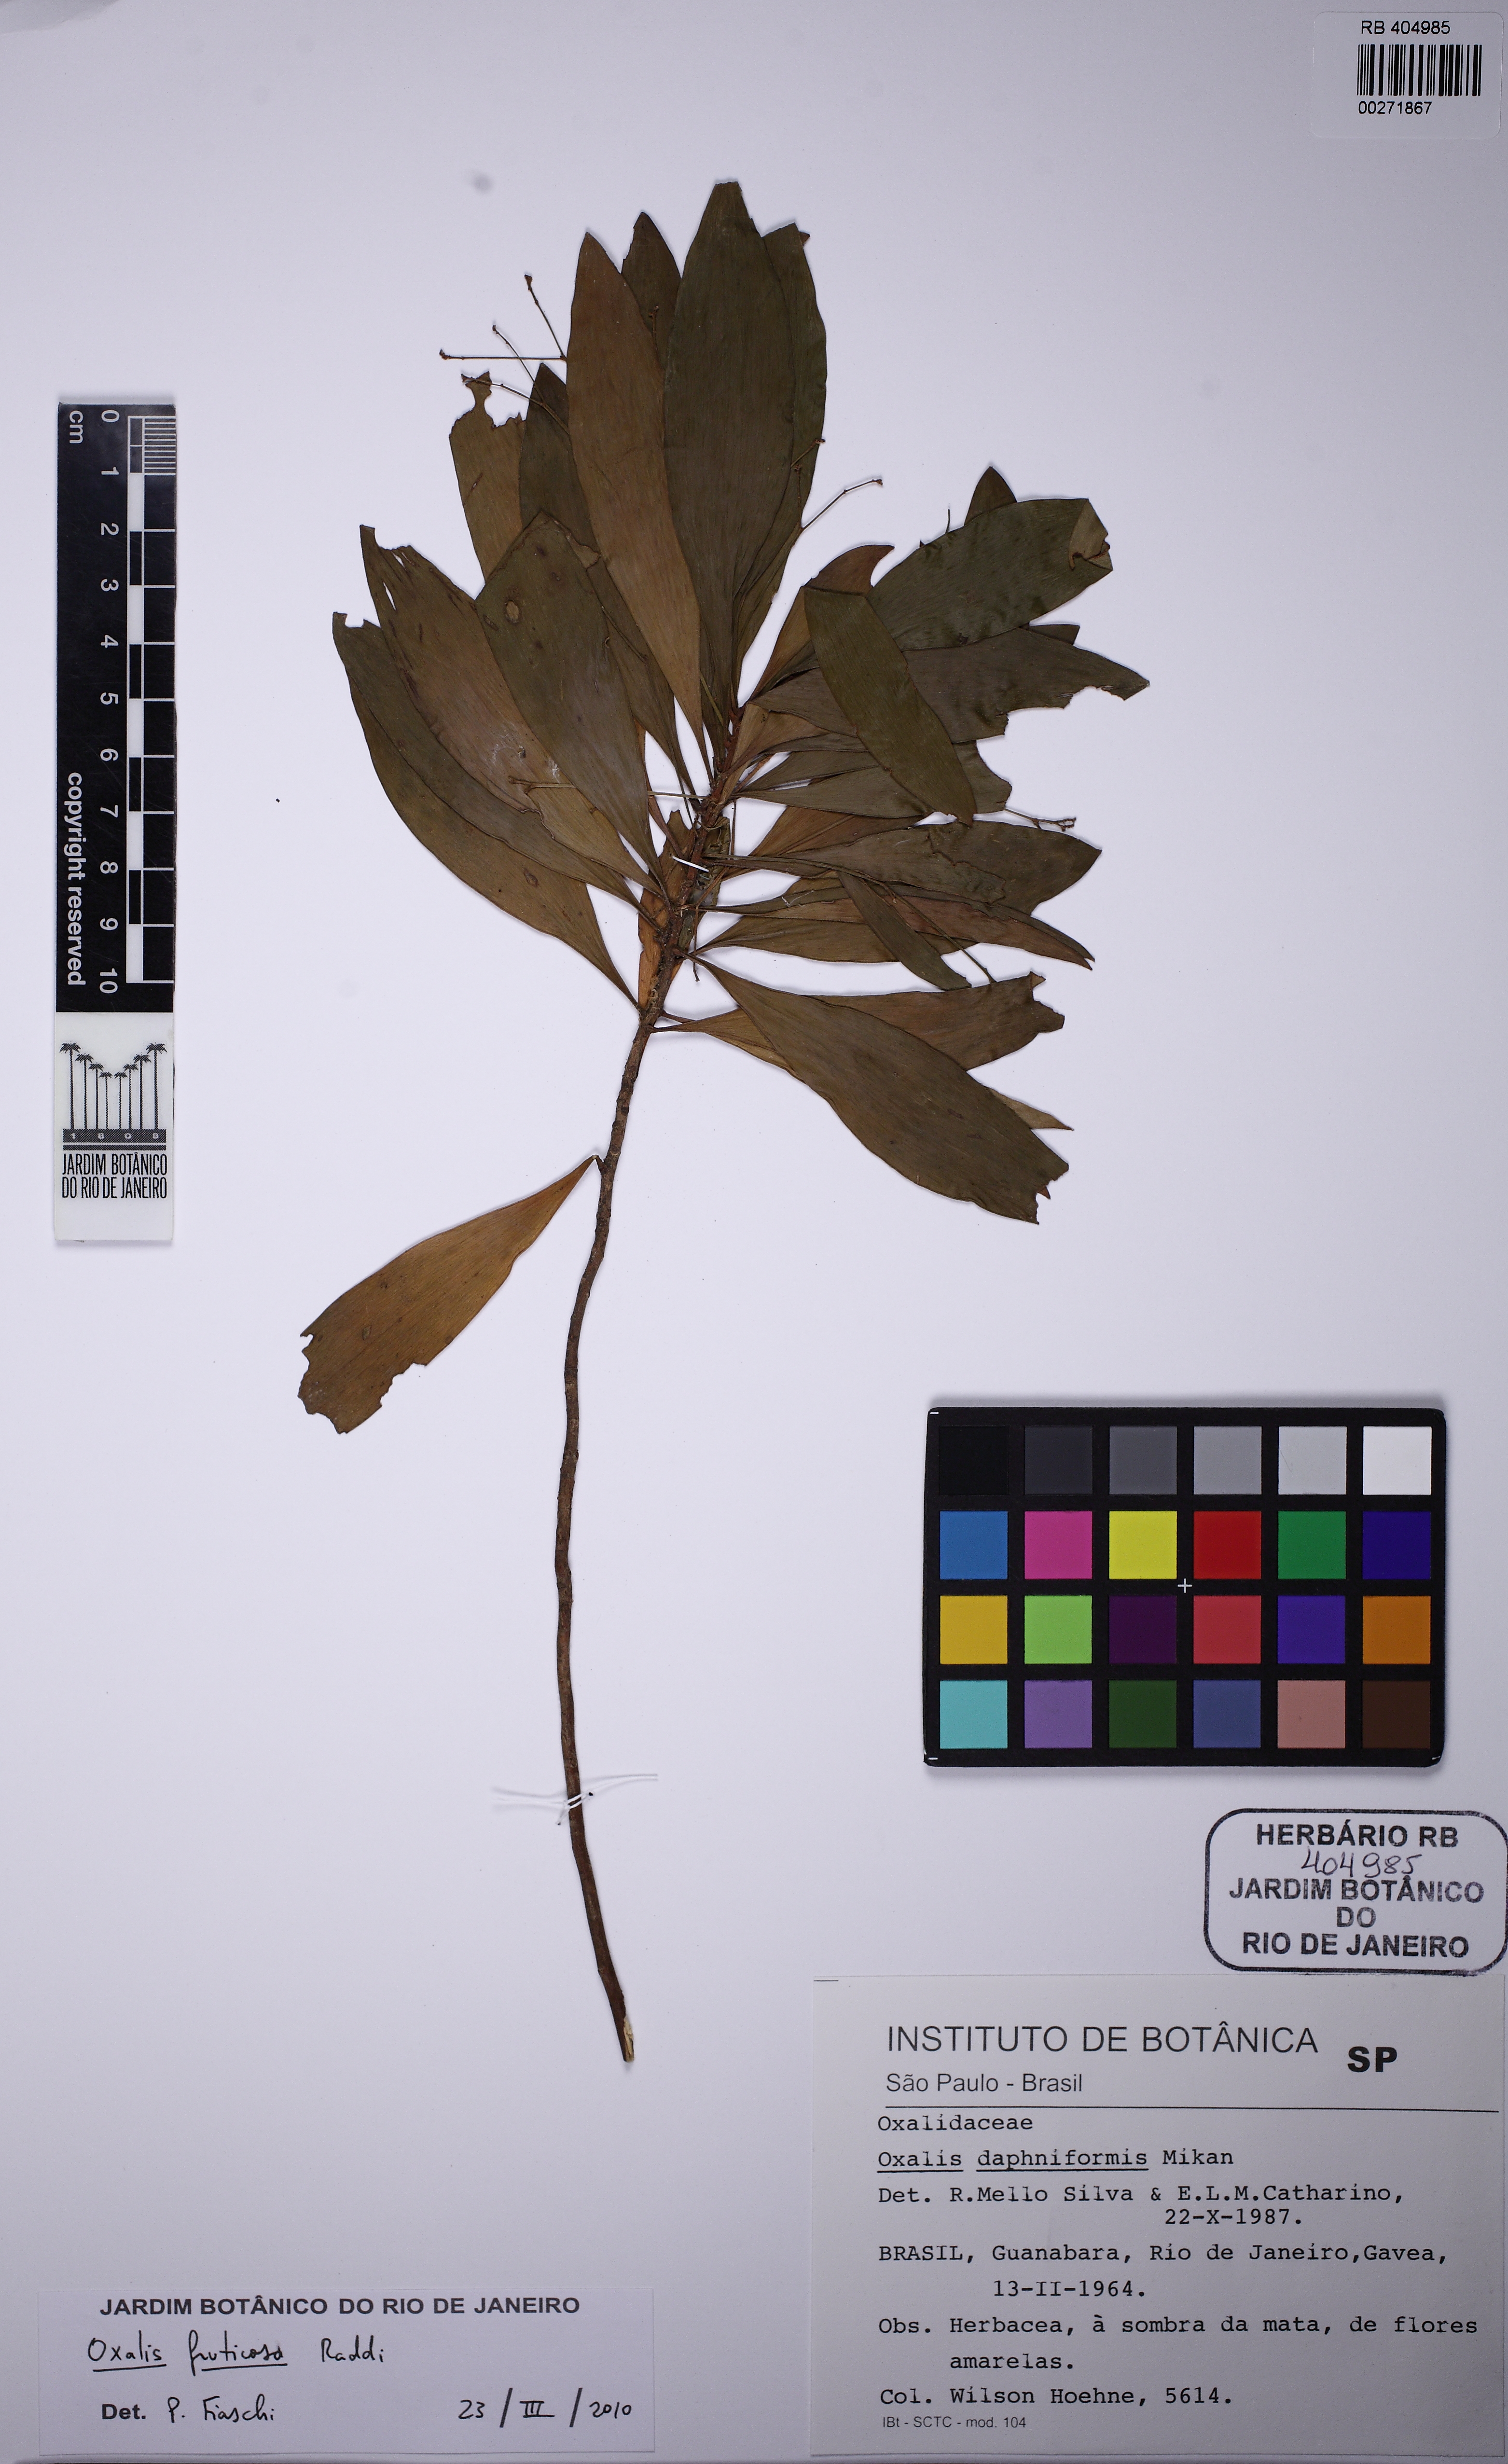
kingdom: Plantae
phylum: Tracheophyta
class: Magnoliopsida
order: Oxalidales
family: Oxalidaceae
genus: Oxalis
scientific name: Oxalis fruticosa
